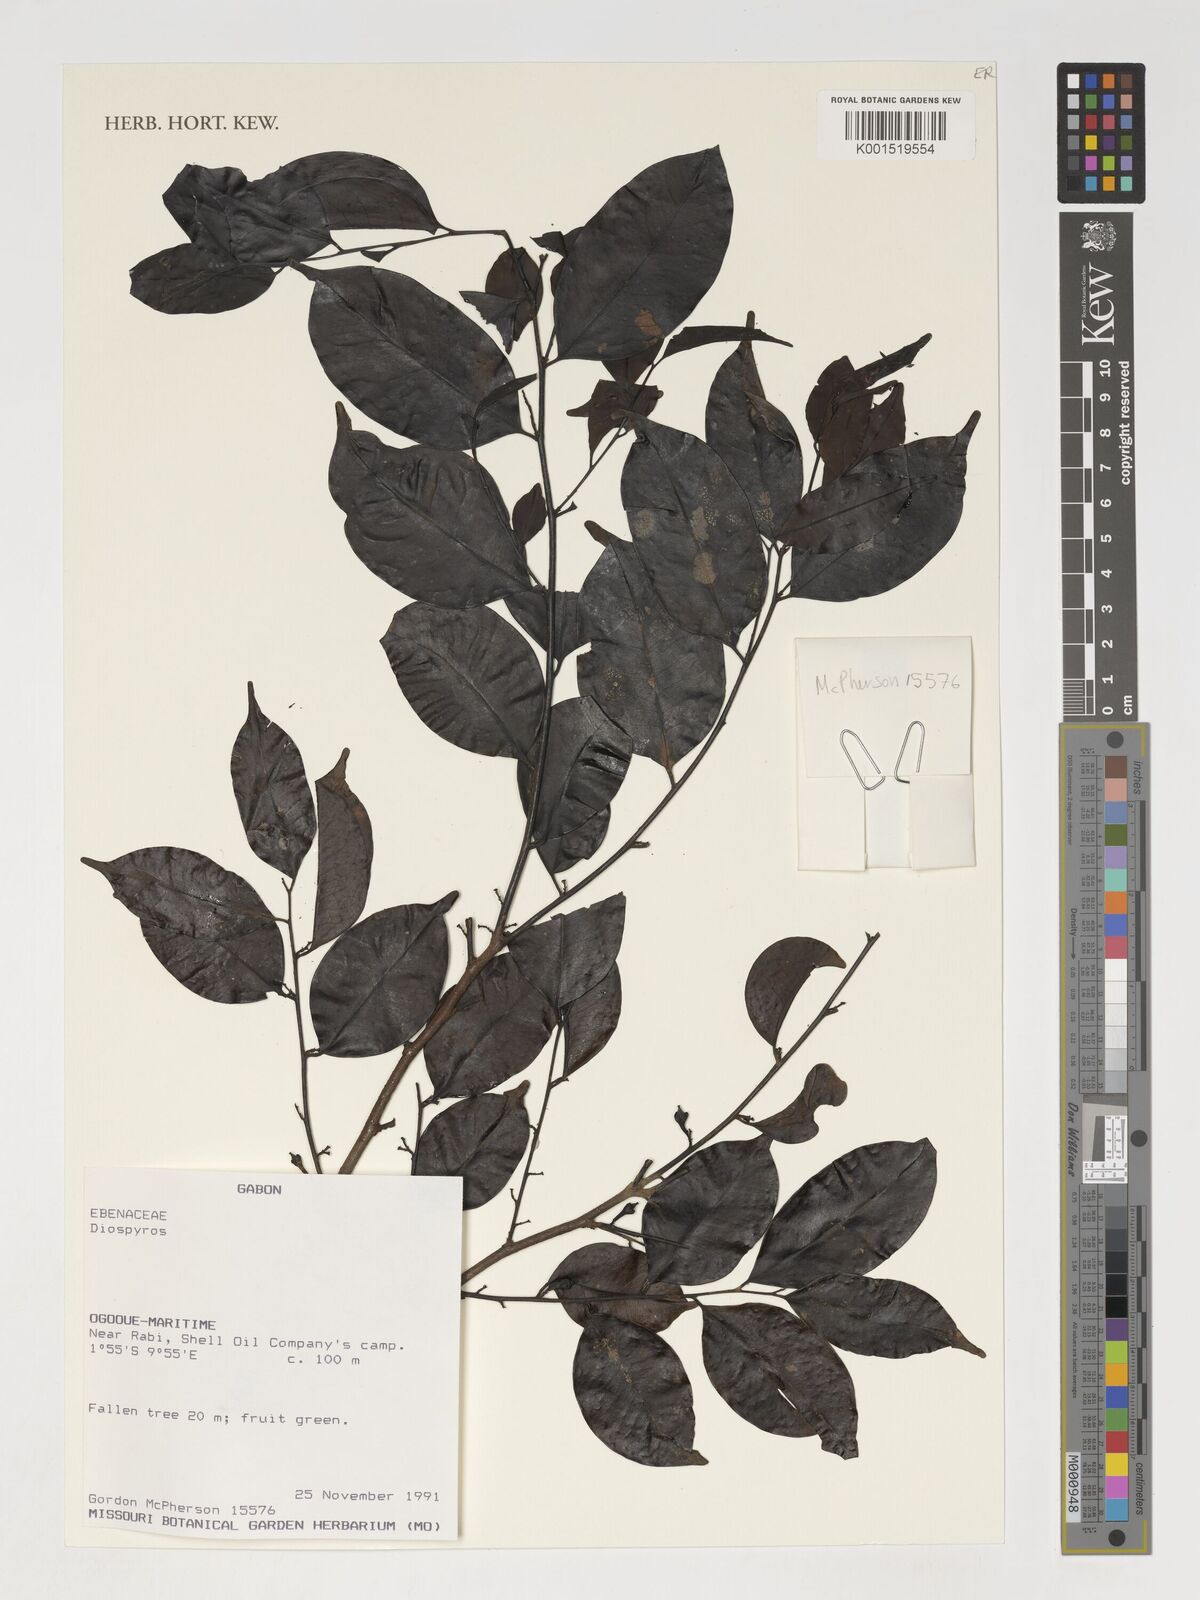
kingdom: Plantae
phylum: Tracheophyta
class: Magnoliopsida
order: Ericales
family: Ebenaceae
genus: Diospyros
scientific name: Diospyros
